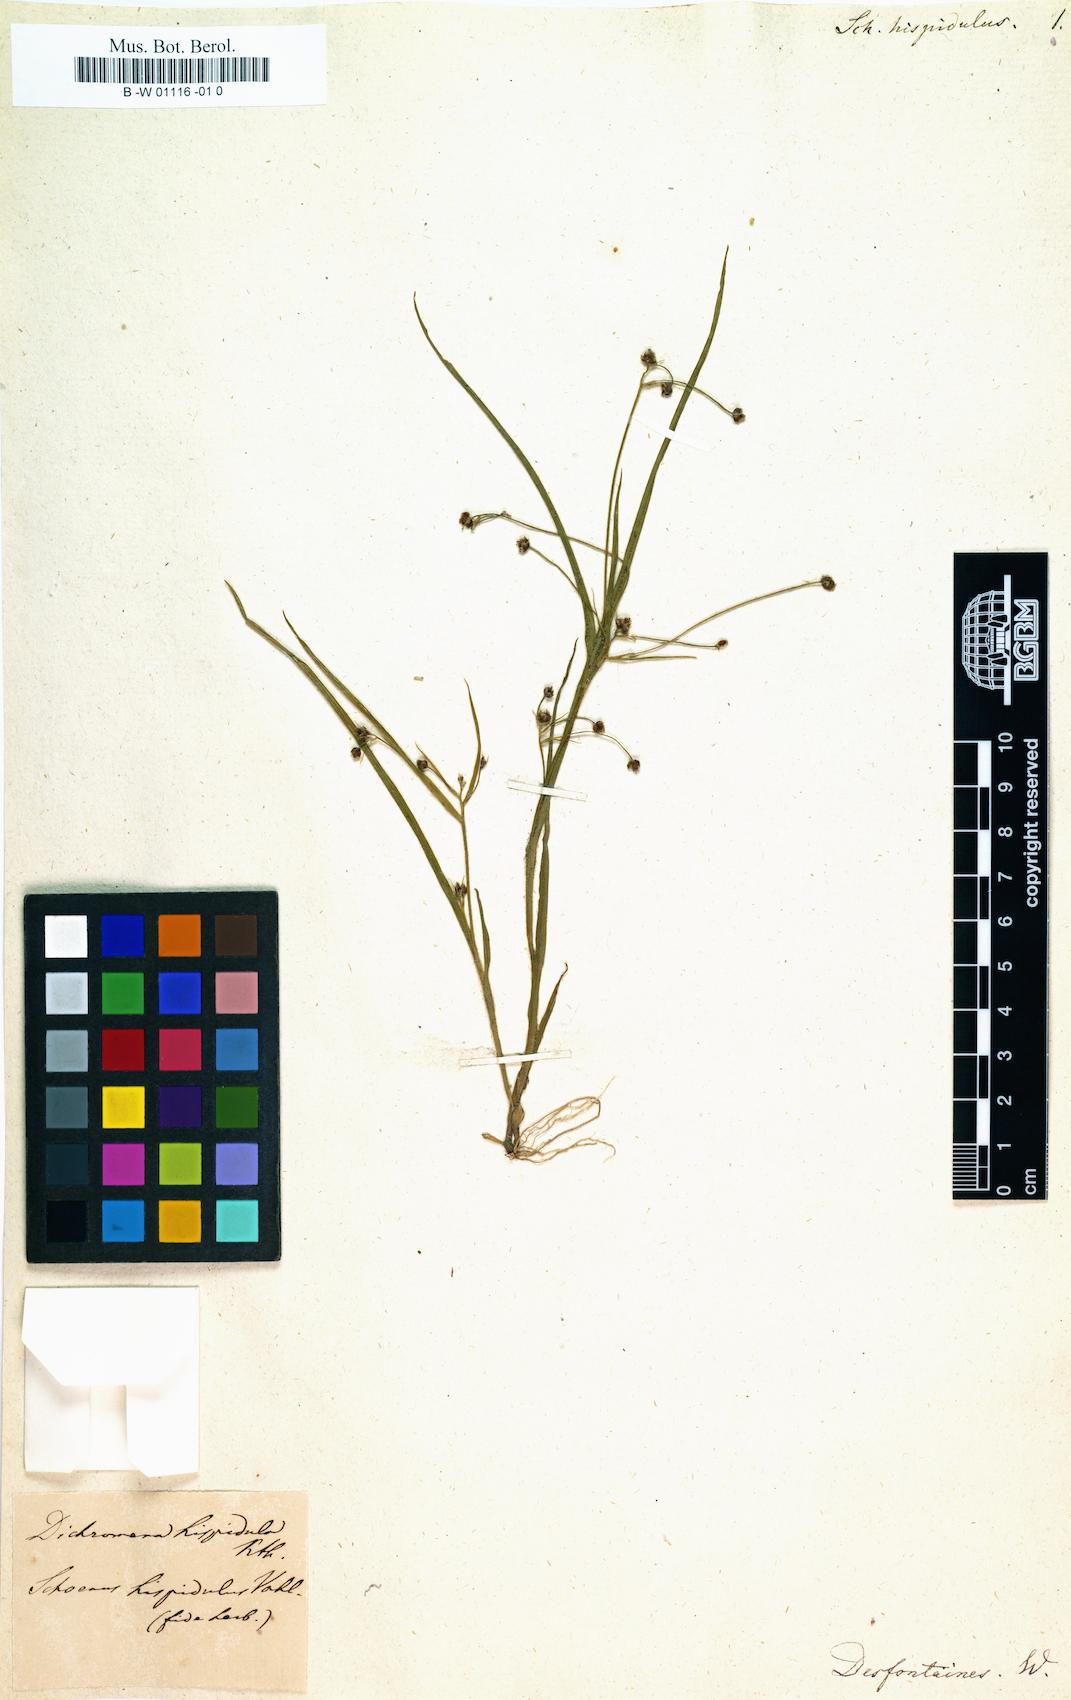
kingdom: Plantae
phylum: Tracheophyta
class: Liliopsida
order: Poales
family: Cyperaceae
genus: Rhynchospora
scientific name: Rhynchospora divaricata
